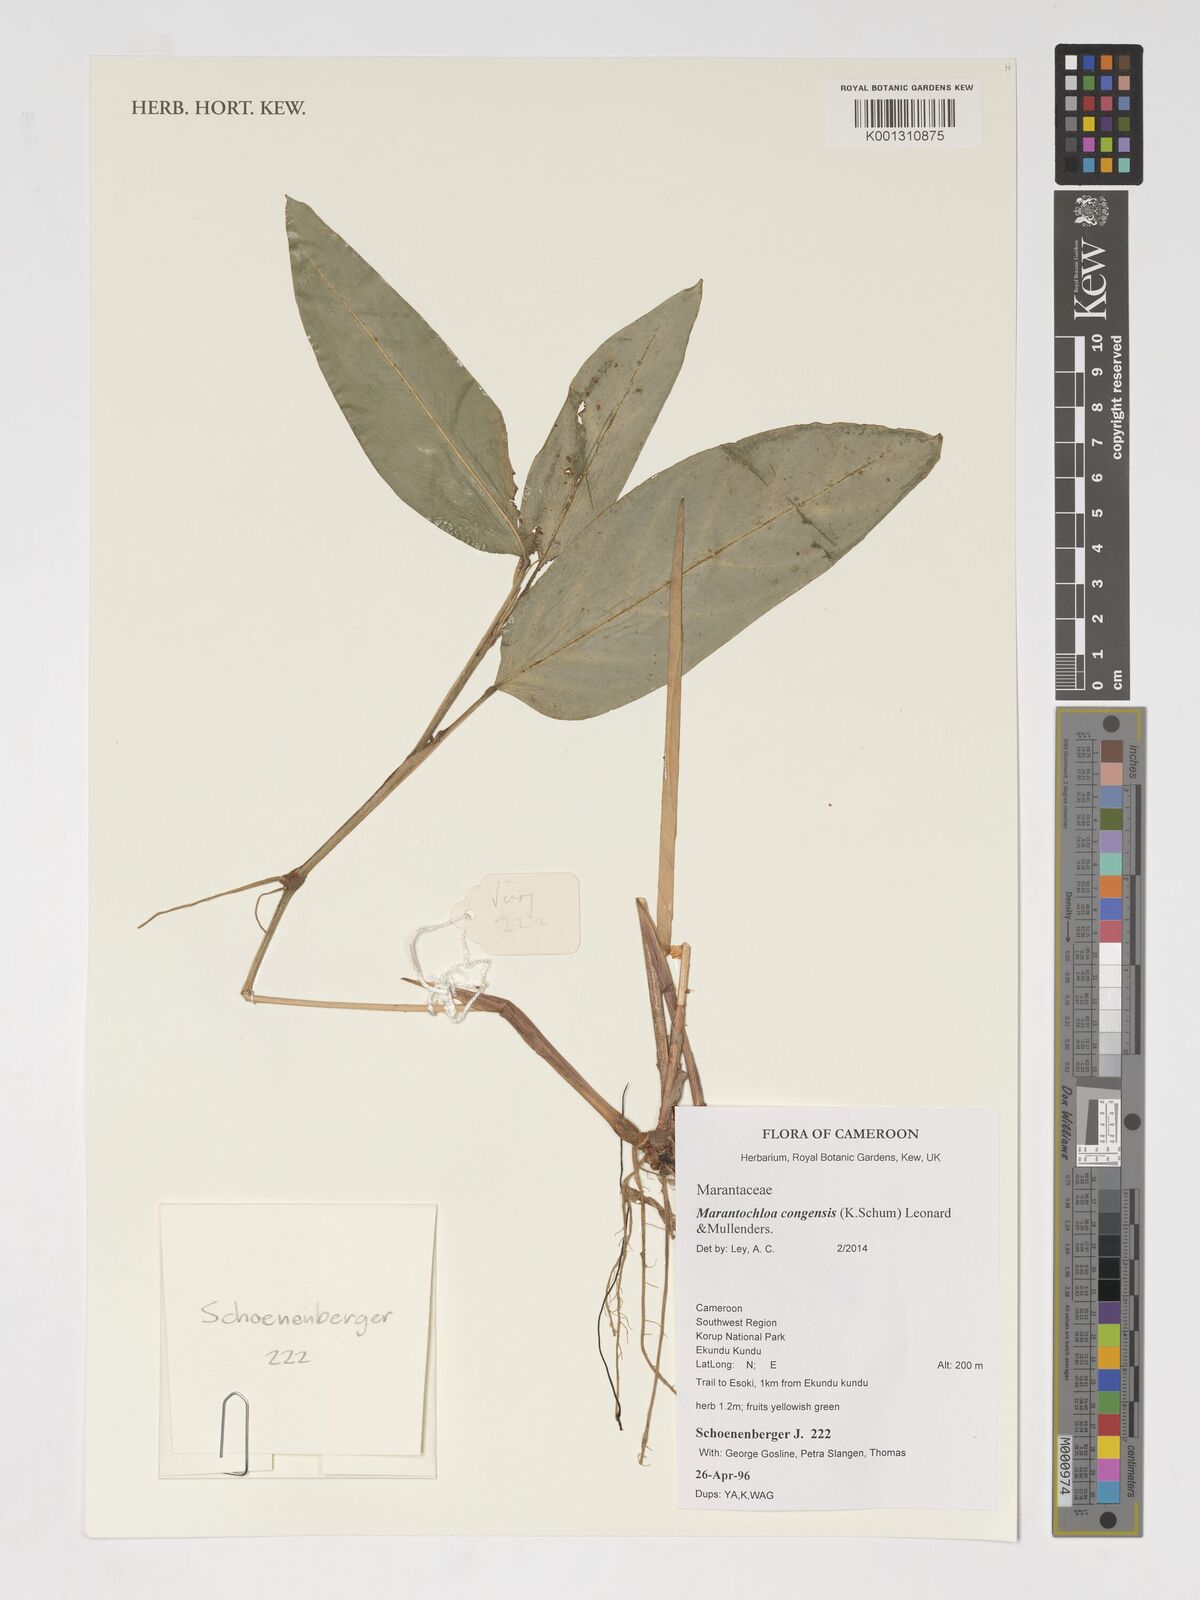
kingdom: Plantae
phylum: Tracheophyta
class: Liliopsida
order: Zingiberales
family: Marantaceae
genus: Marantochloa
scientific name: Marantochloa congensis
